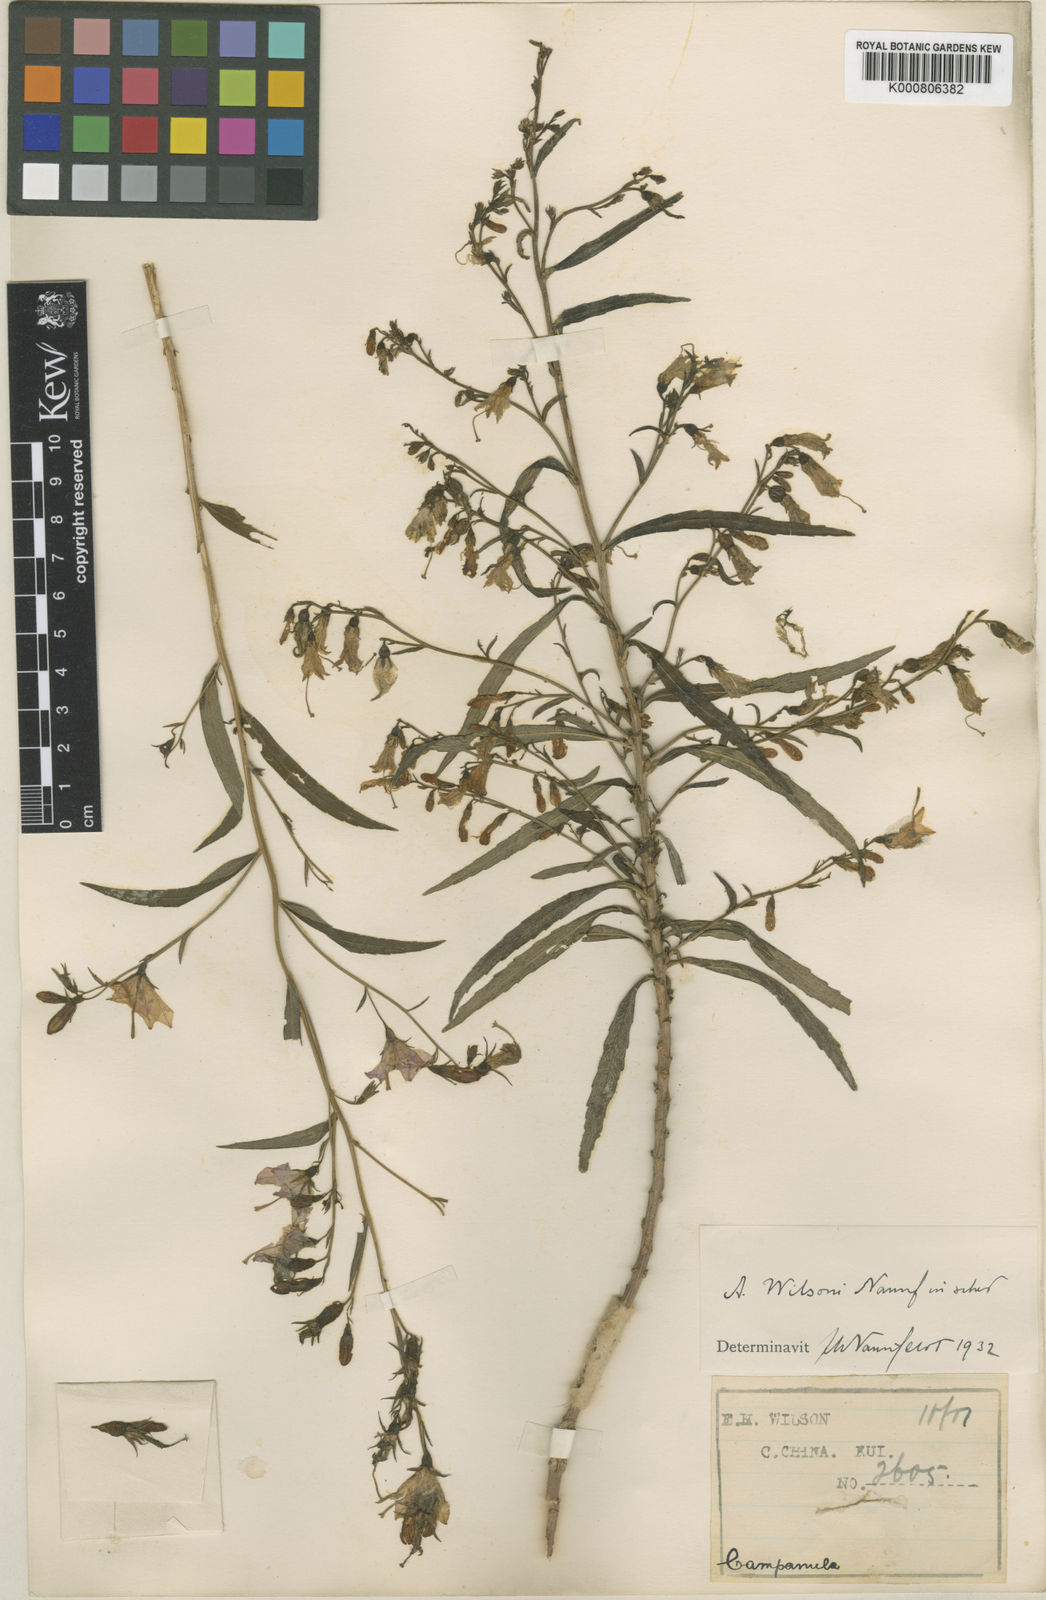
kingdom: Plantae
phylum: Tracheophyta
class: Magnoliopsida
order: Asterales
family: Campanulaceae
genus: Adenophora
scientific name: Adenophora wilsonii
